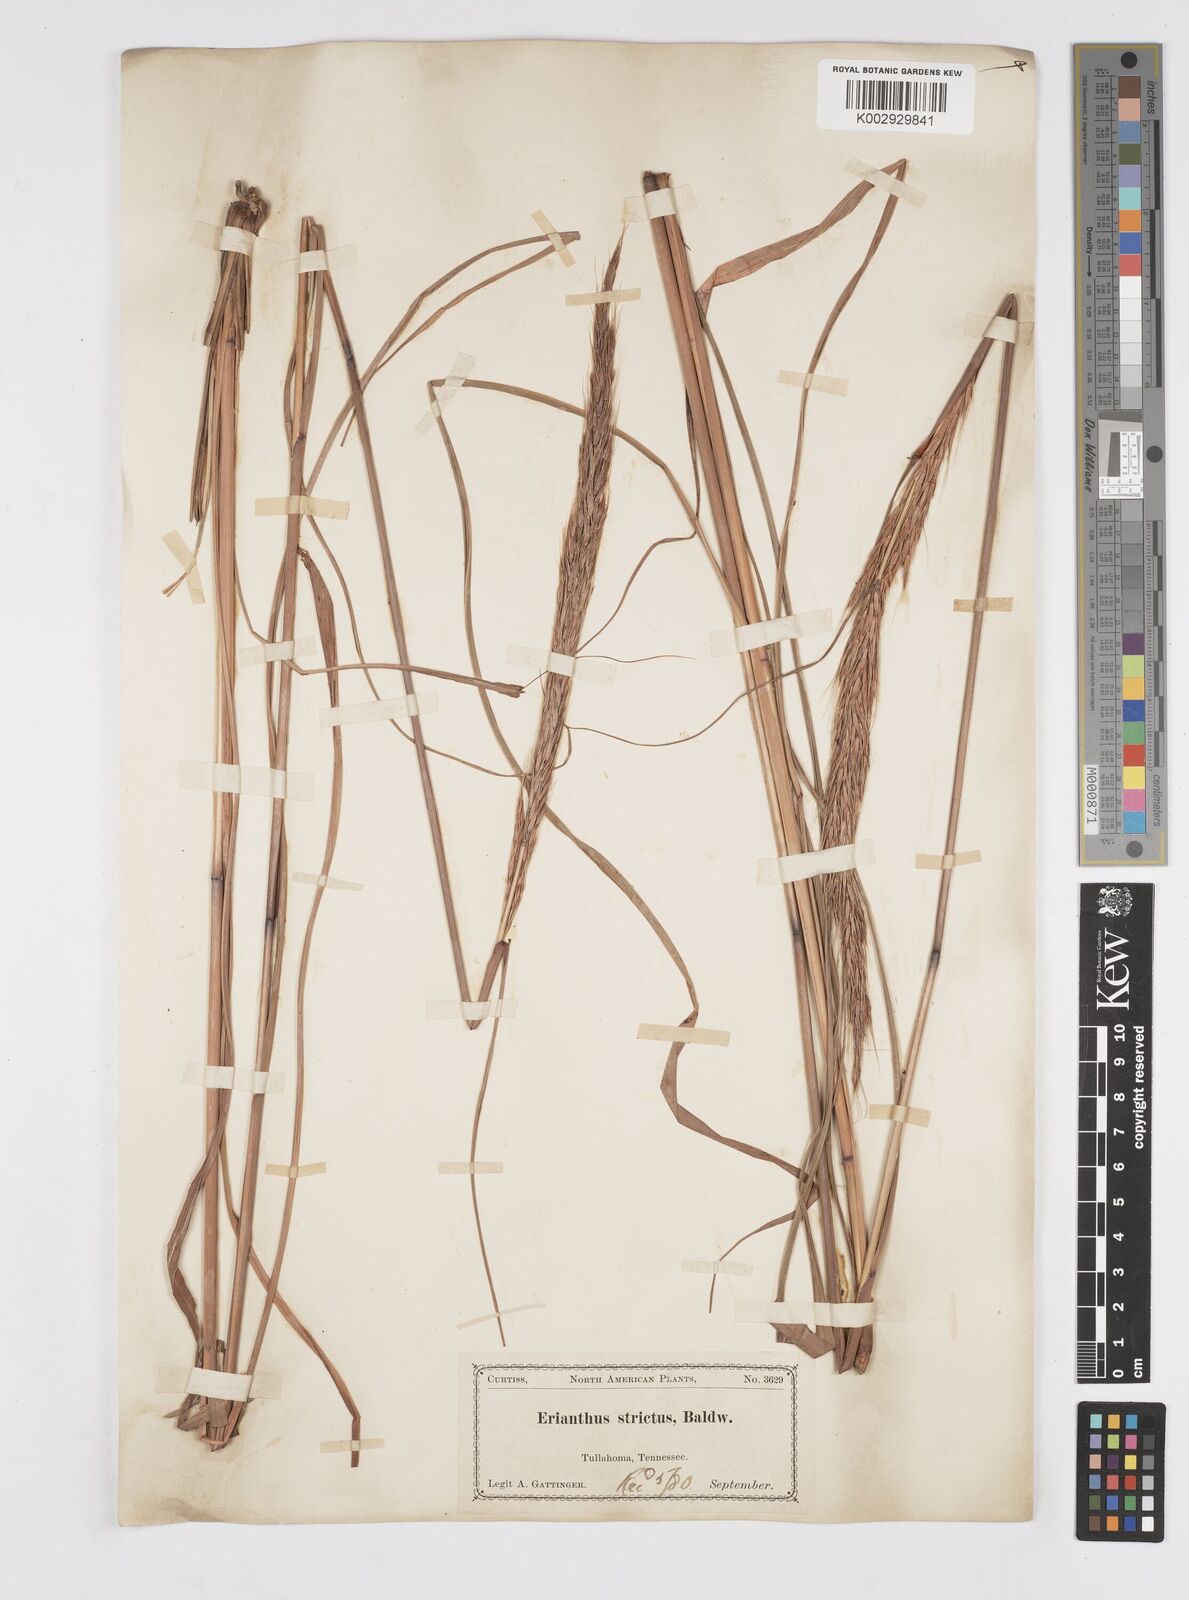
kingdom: Plantae
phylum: Tracheophyta
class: Liliopsida
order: Poales
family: Poaceae
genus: Erianthus
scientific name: Erianthus strictus
